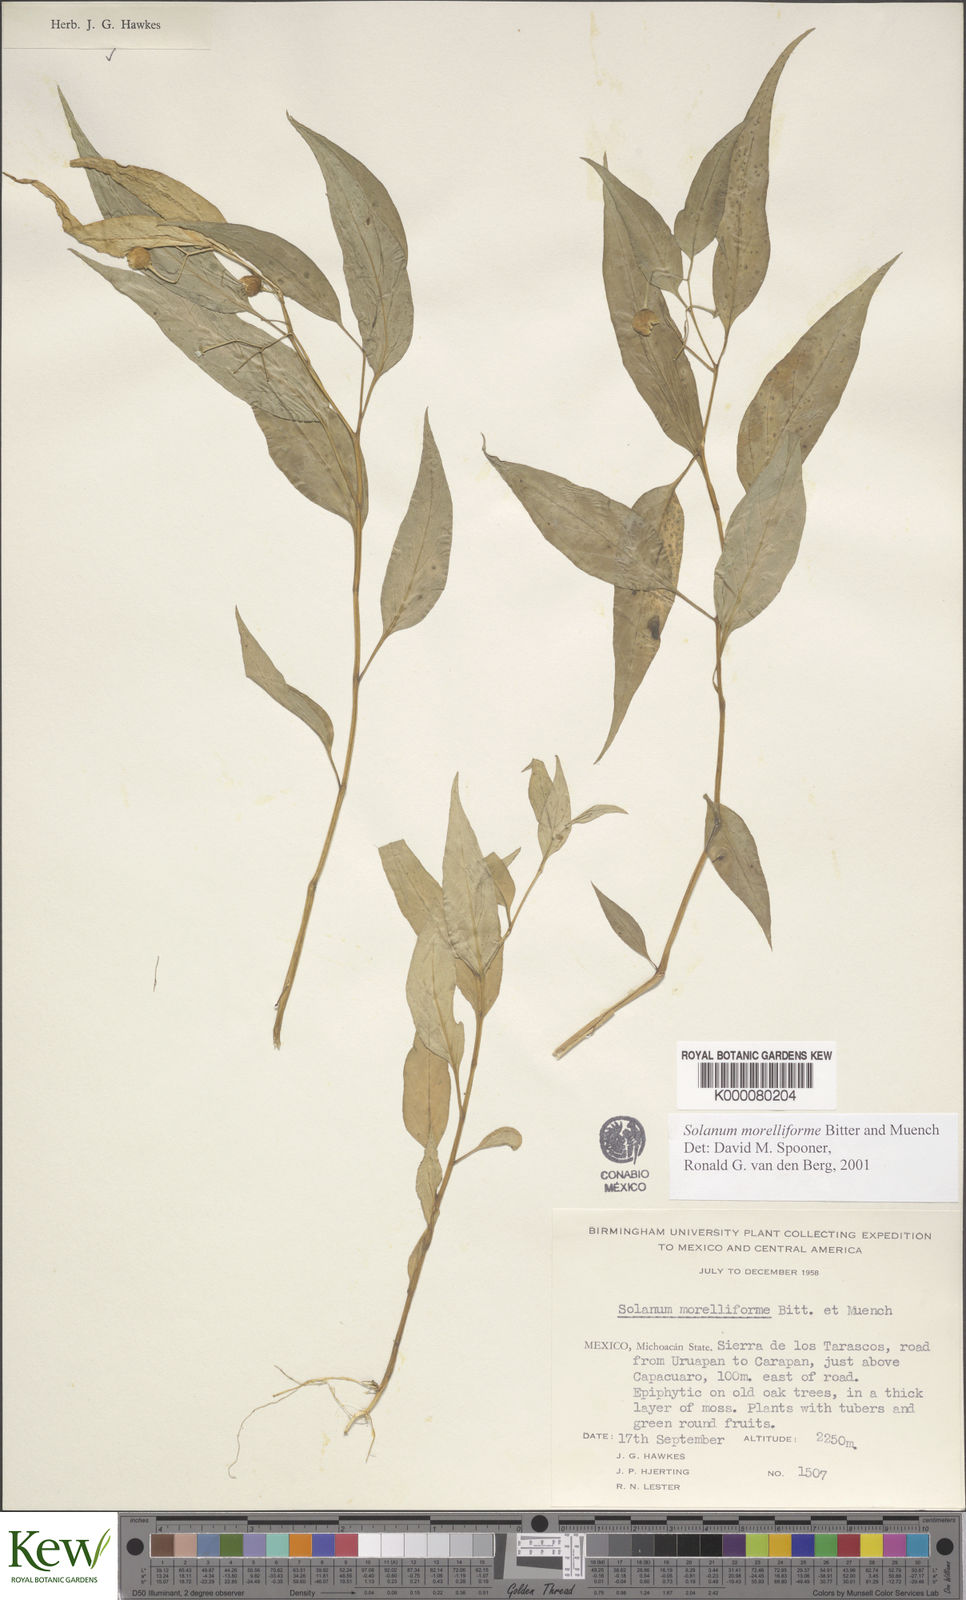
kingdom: Plantae
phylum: Tracheophyta
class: Magnoliopsida
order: Solanales
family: Solanaceae
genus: Solanum
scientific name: Solanum morelliforme
